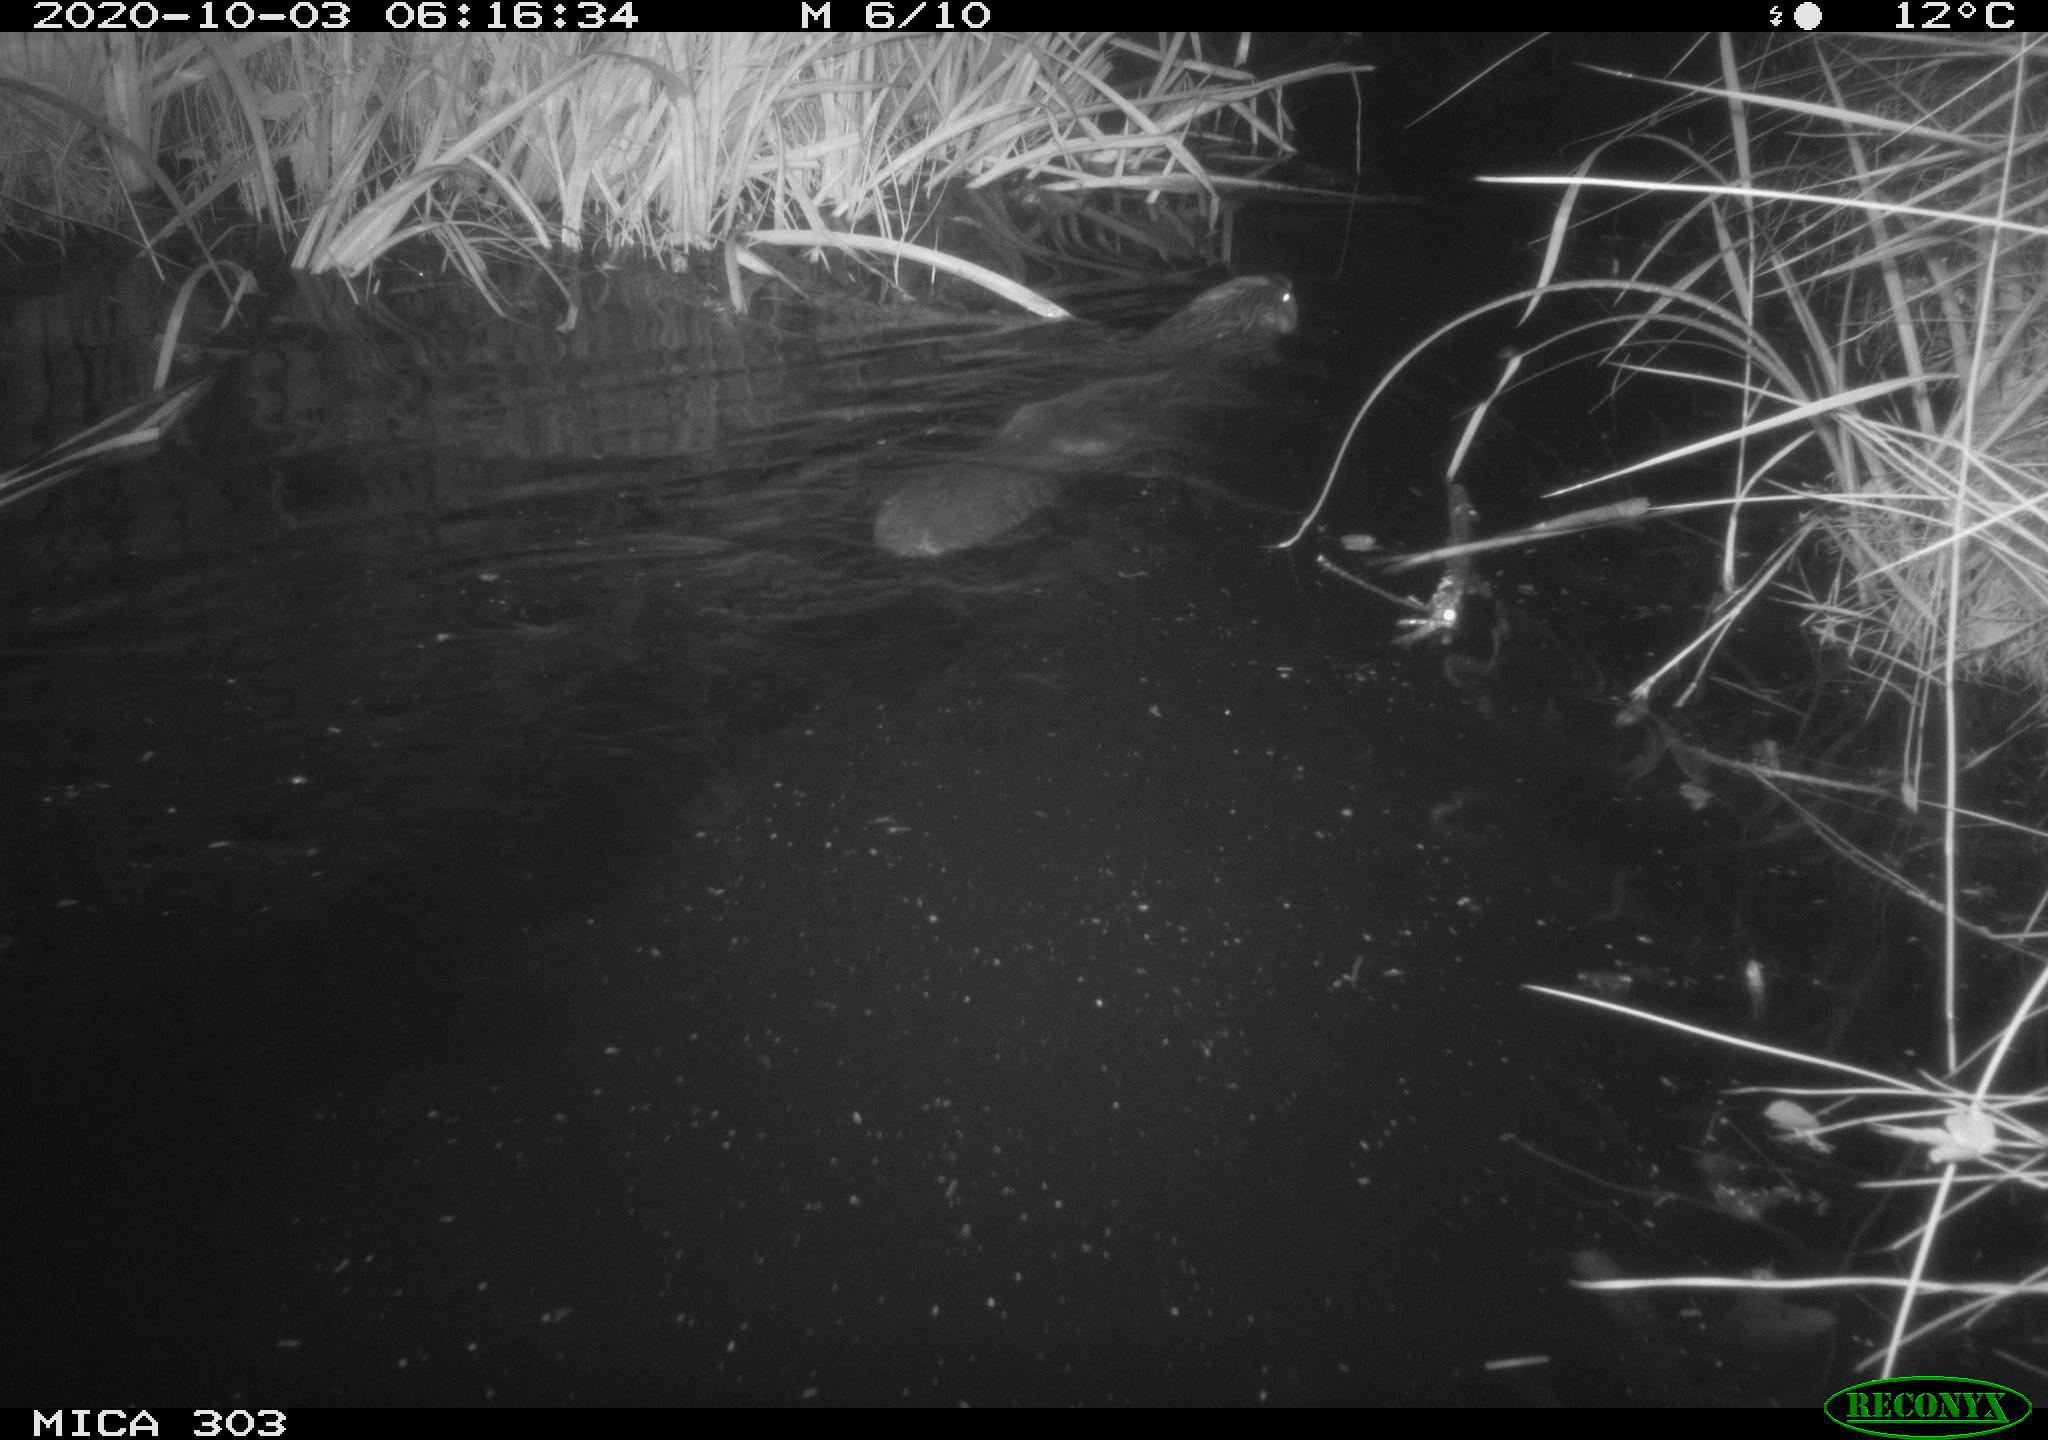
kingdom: Animalia
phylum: Chordata
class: Mammalia
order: Rodentia
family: Castoridae
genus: Castor
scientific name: Castor fiber
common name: Eurasian beaver
